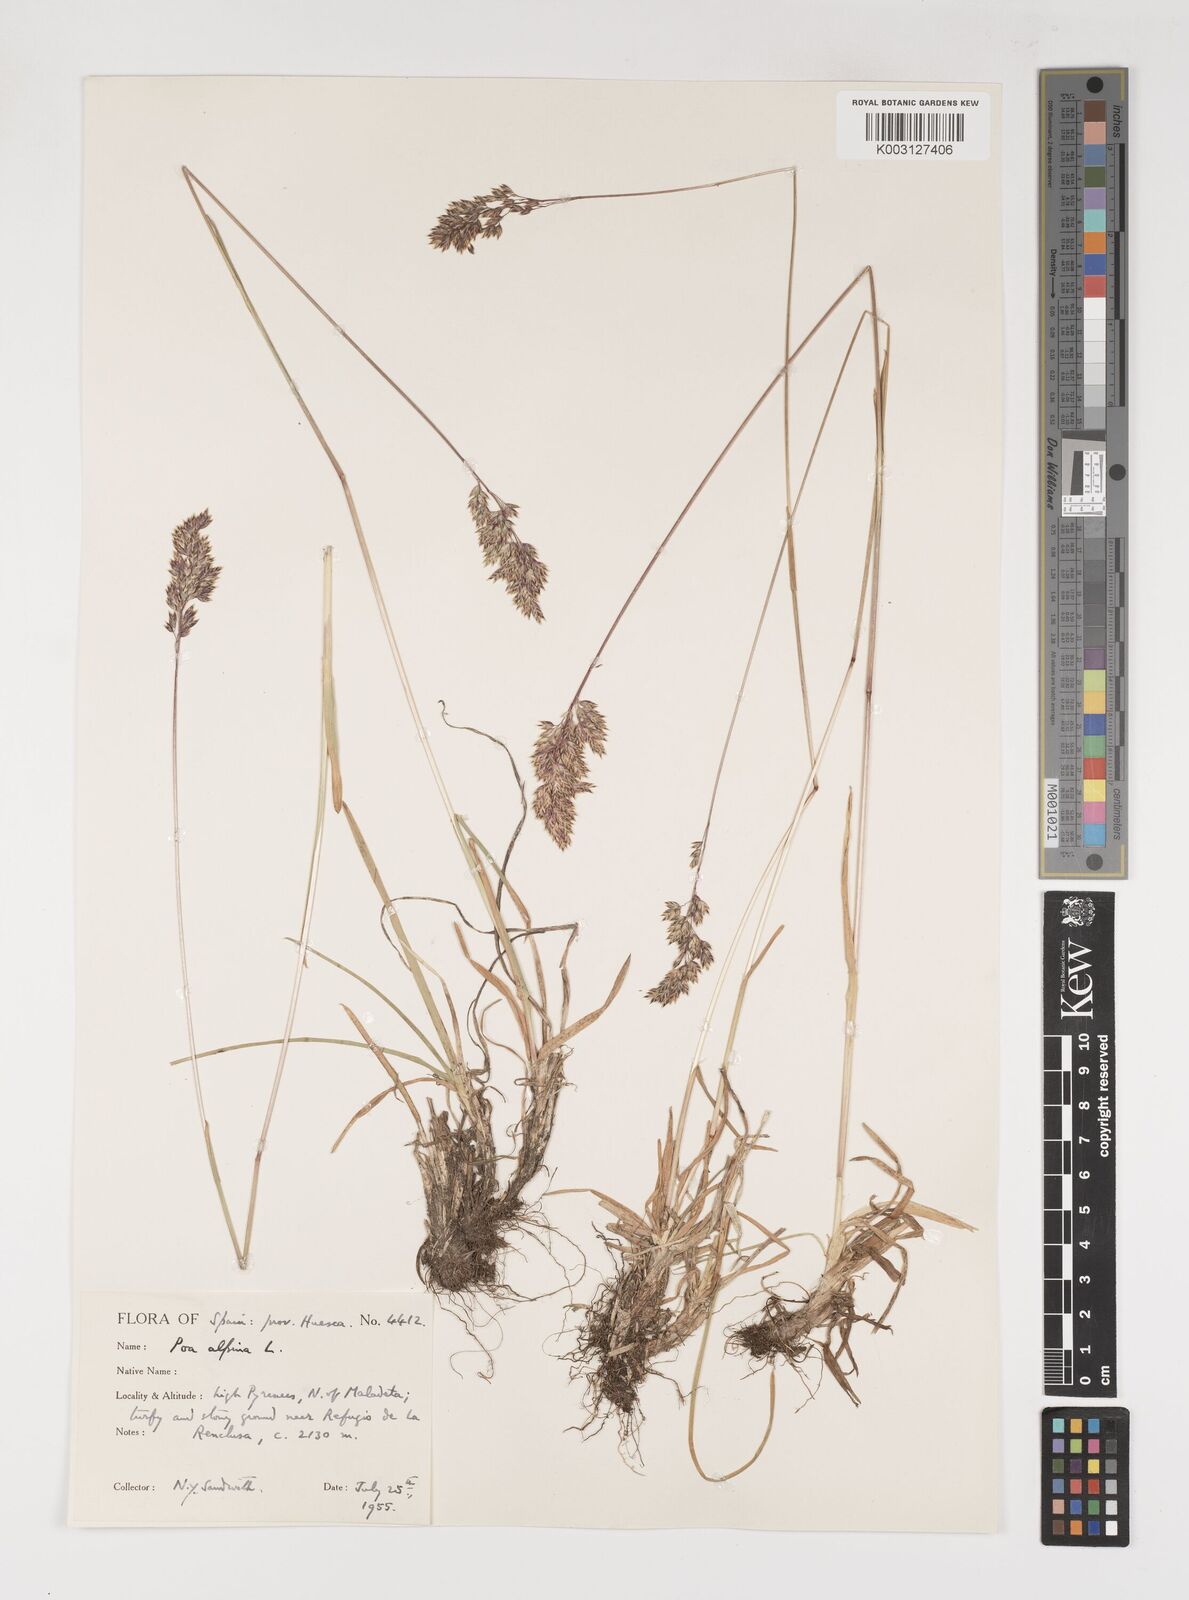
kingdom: Plantae
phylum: Tracheophyta
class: Liliopsida
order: Poales
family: Poaceae
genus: Poa
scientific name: Poa alpina
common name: Alpine bluegrass
